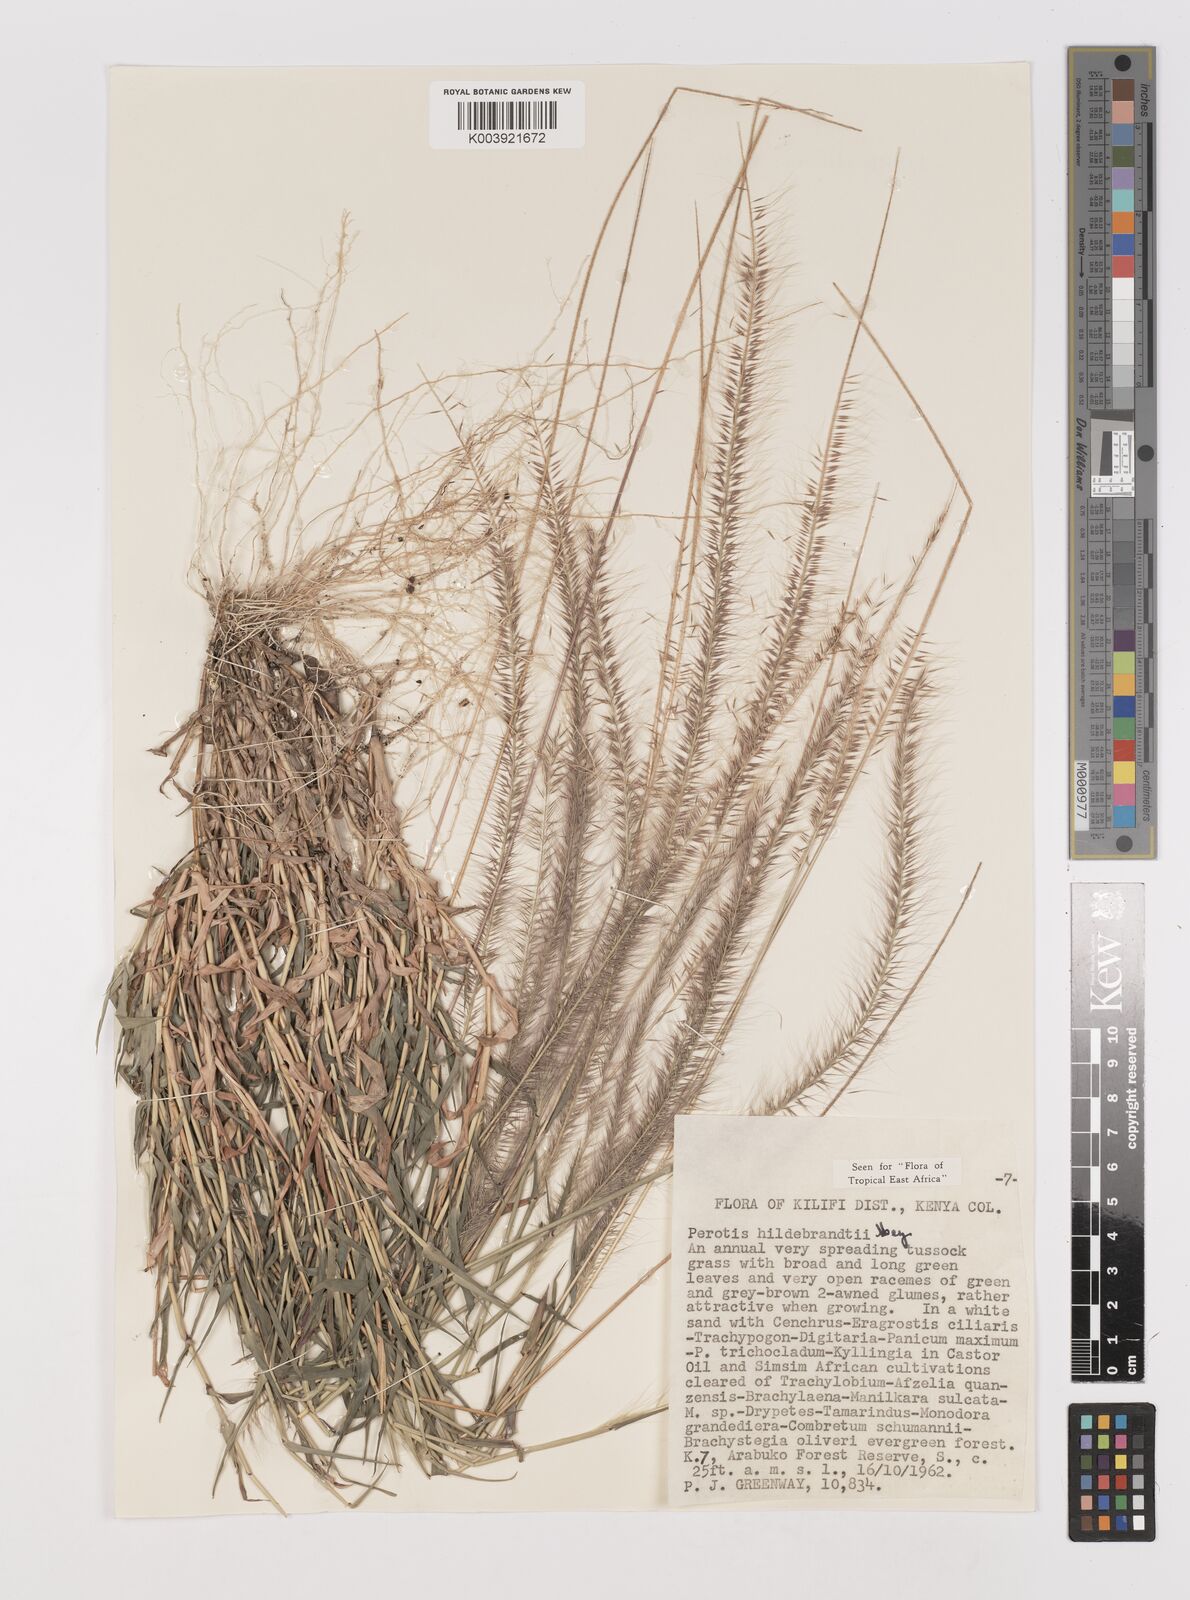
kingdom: Plantae
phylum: Tracheophyta
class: Liliopsida
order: Poales
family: Poaceae
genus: Perotis
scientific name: Perotis hildebrandtii
